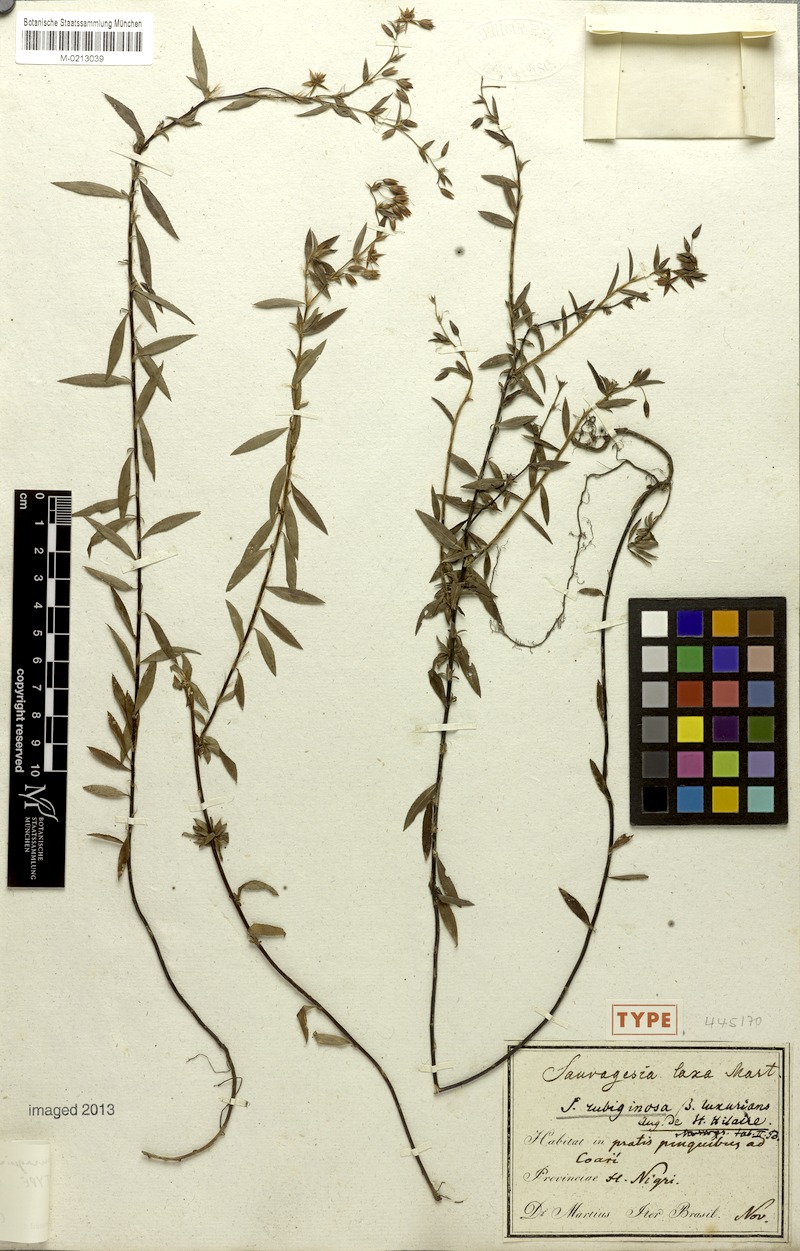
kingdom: Plantae
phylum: Tracheophyta
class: Magnoliopsida
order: Malpighiales
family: Ochnaceae
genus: Sauvagesia
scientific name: Sauvagesia rubiginosa
